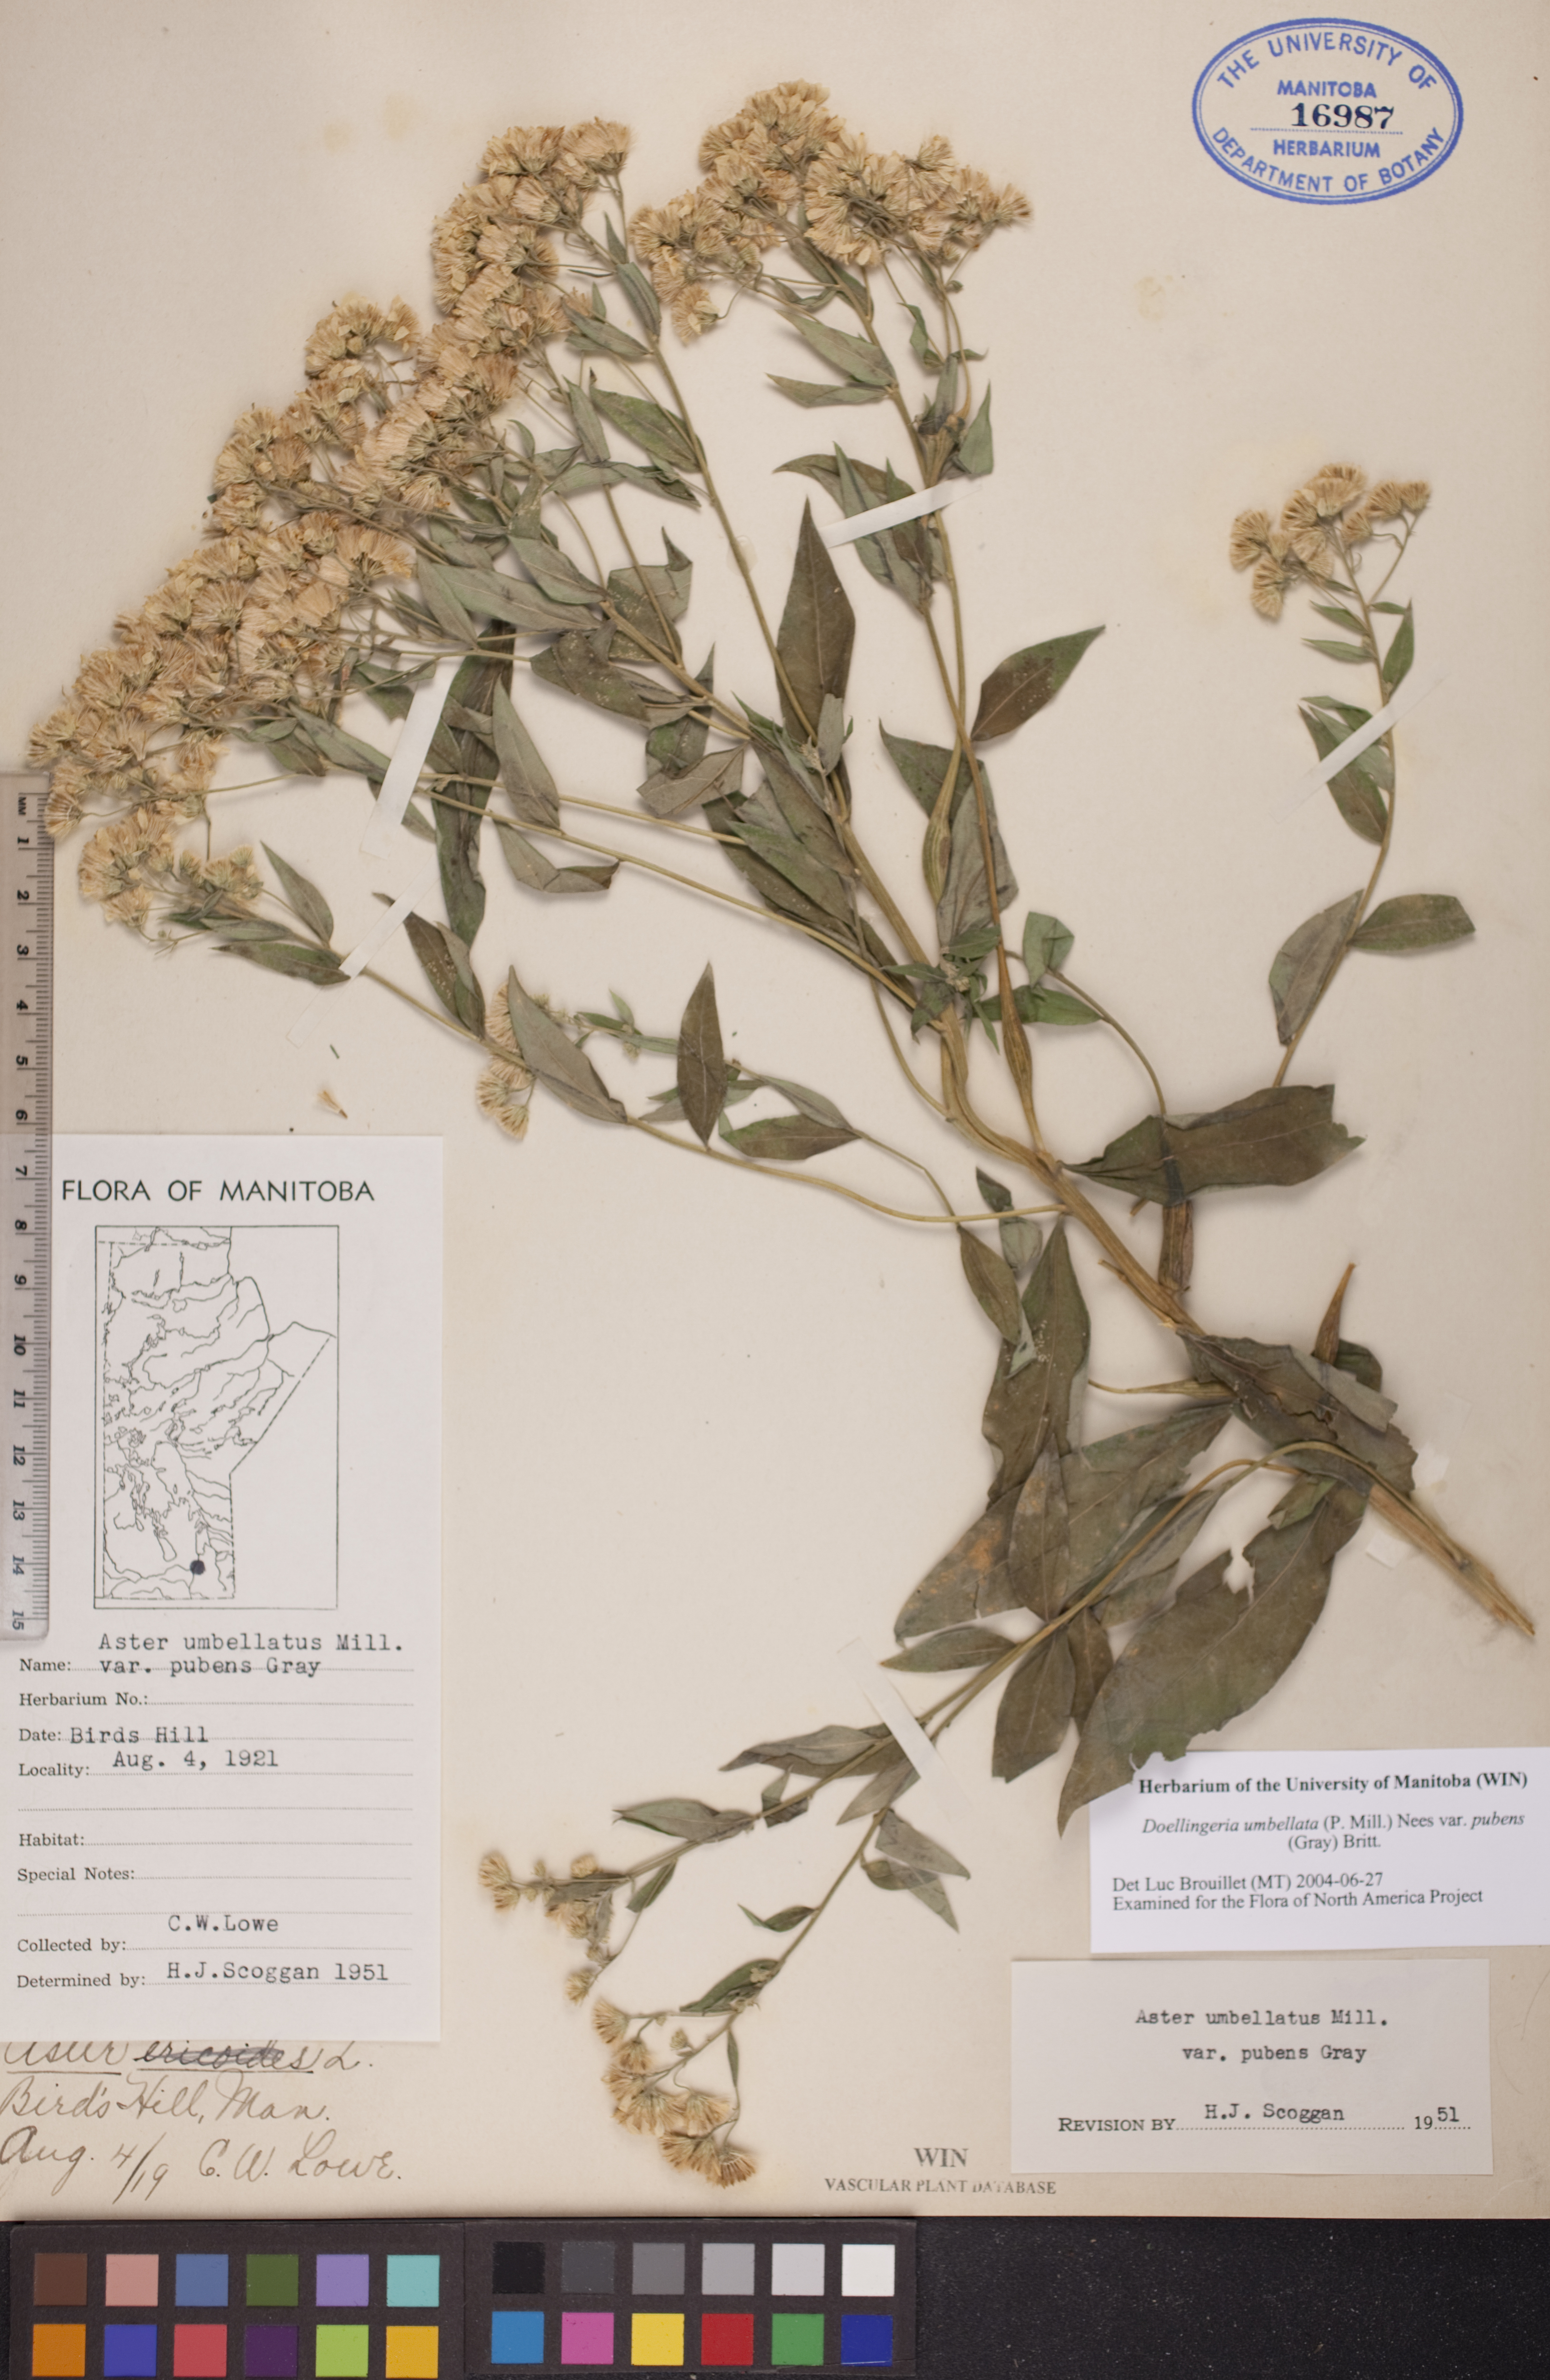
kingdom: Plantae
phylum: Tracheophyta
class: Magnoliopsida
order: Asterales
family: Asteraceae
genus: Doellingeria
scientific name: Doellingeria umbellata
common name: Flat-top white aster
